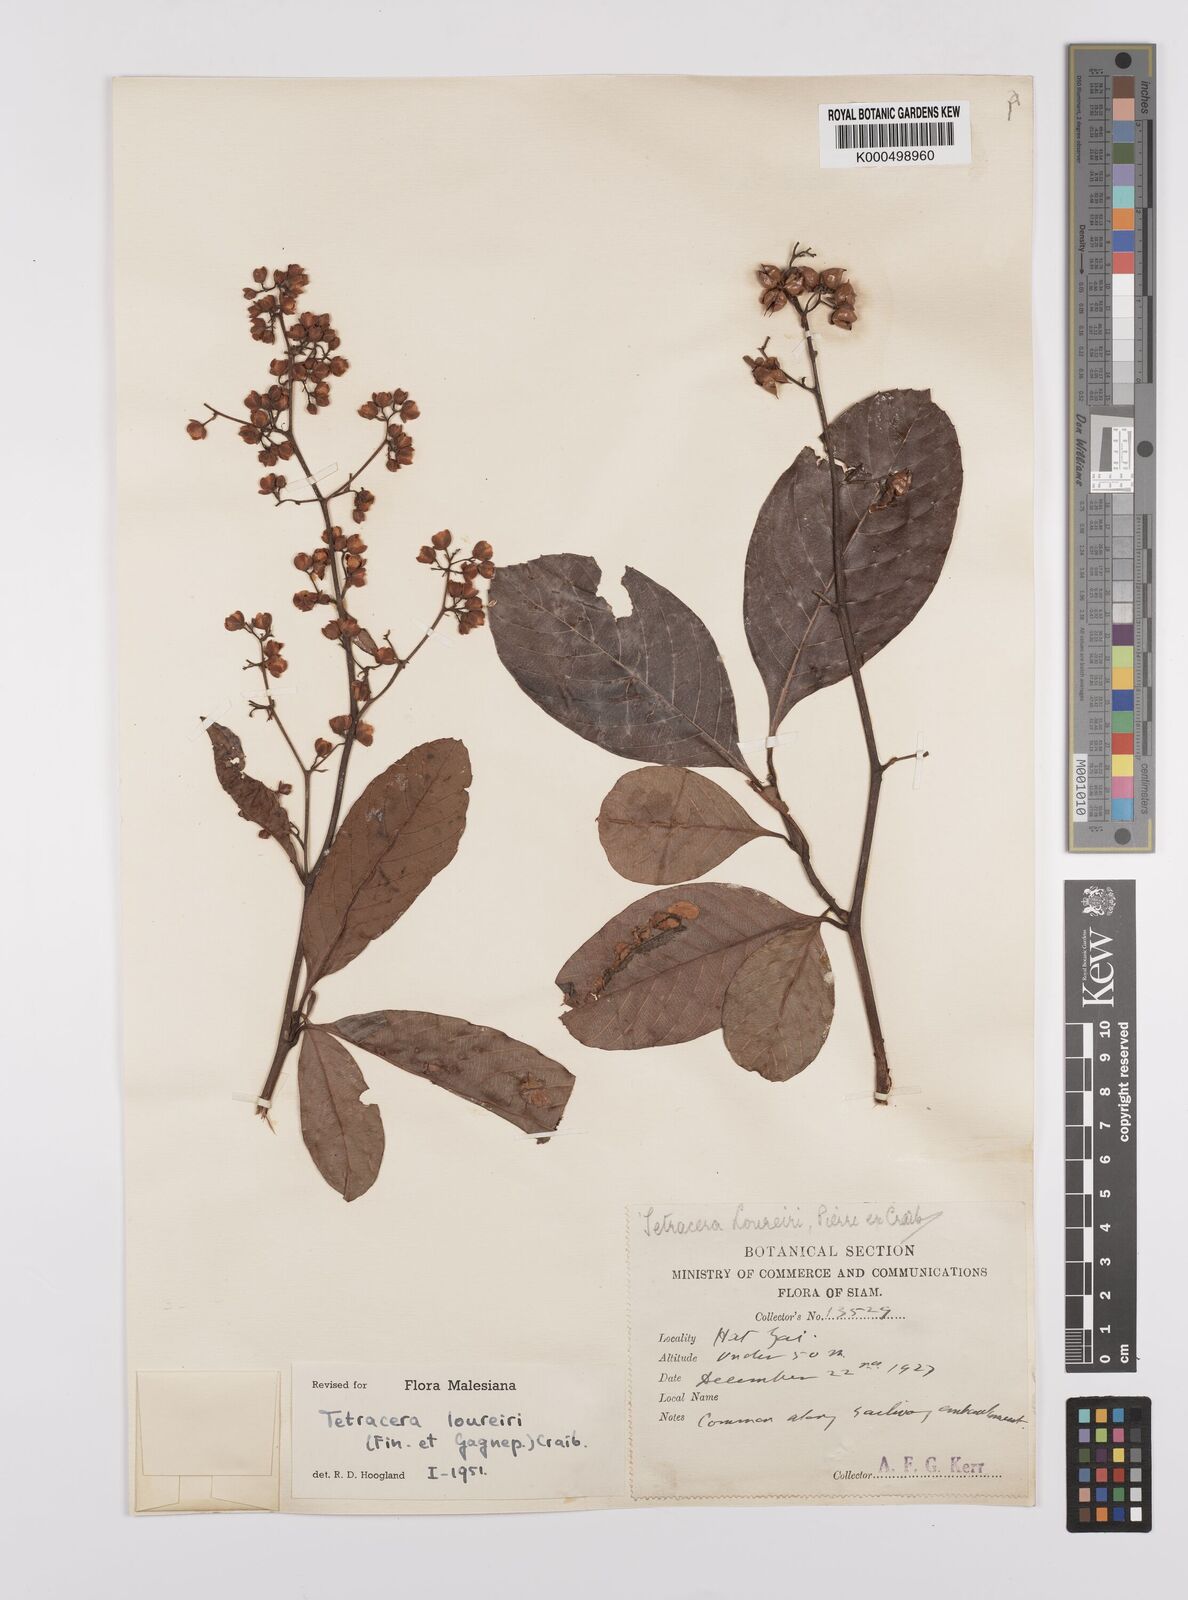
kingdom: Plantae
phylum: Tracheophyta
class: Magnoliopsida
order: Dilleniales
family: Dilleniaceae
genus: Tetracera
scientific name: Tetracera scandens
